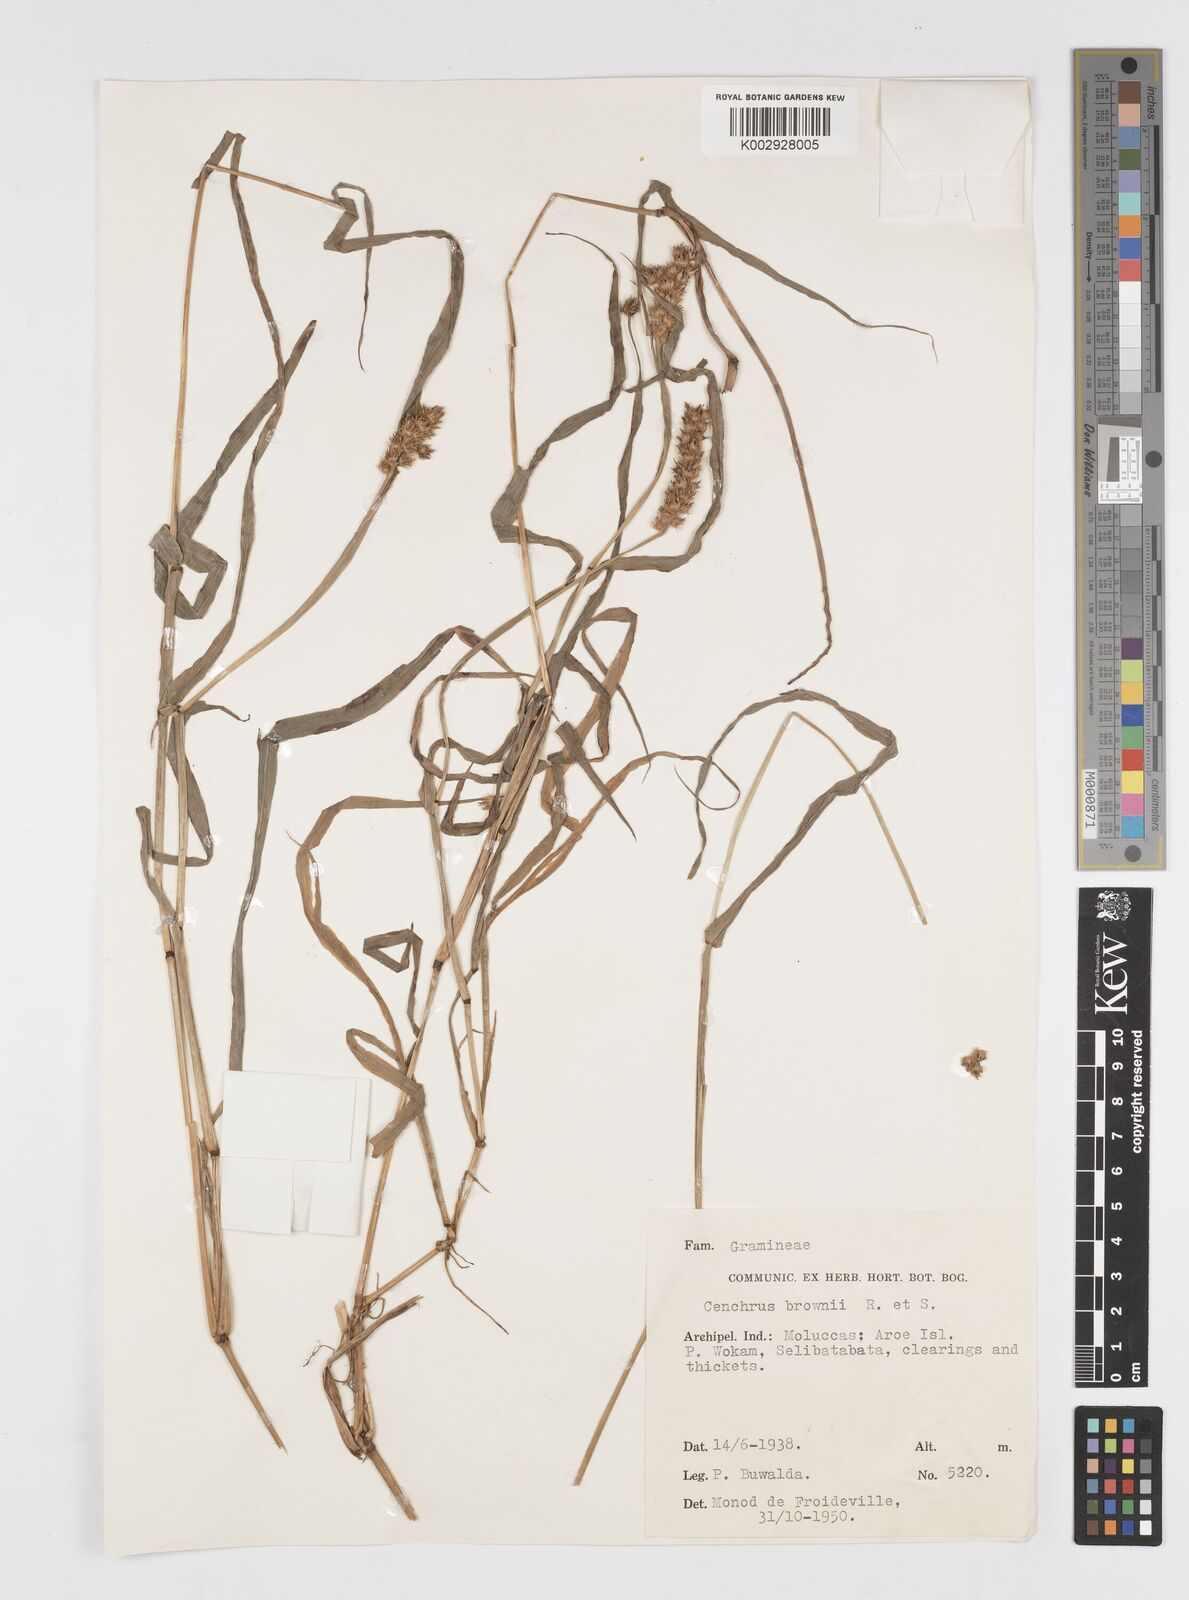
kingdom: Plantae
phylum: Tracheophyta
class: Liliopsida
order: Poales
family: Poaceae
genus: Cenchrus
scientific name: Cenchrus brownii
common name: Slim-bristle sandbur
